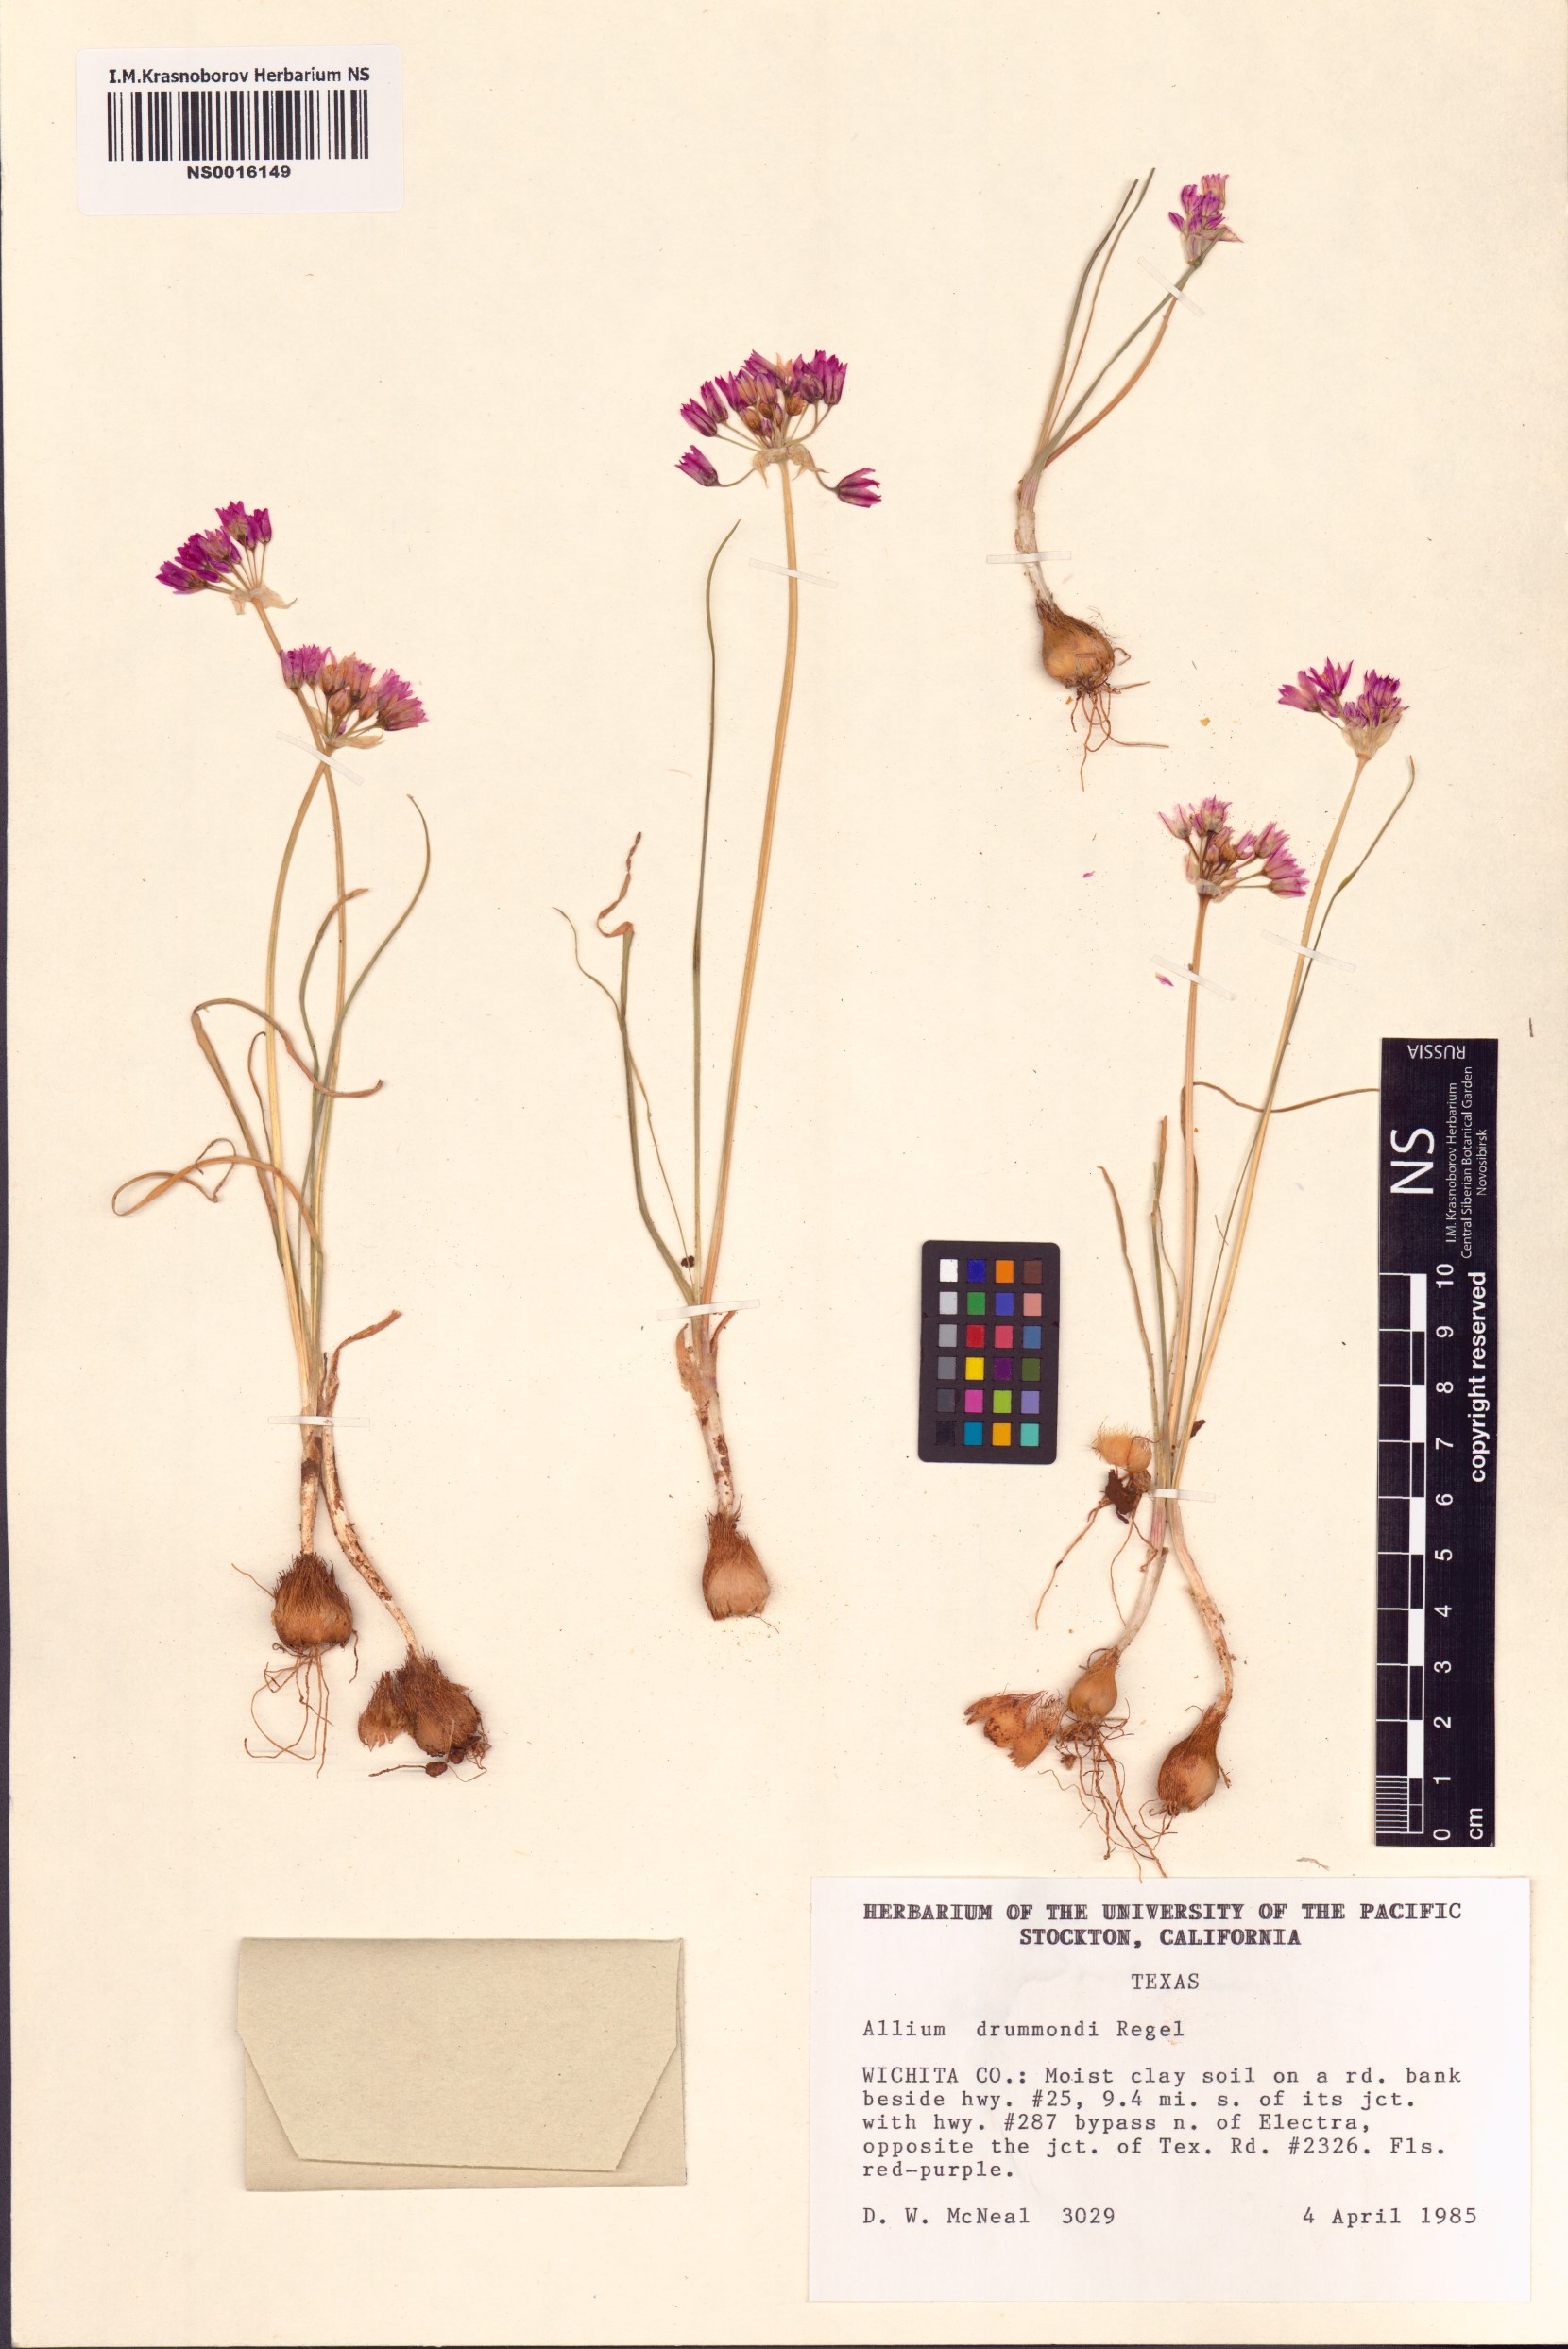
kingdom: Plantae
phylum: Tracheophyta
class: Liliopsida
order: Asparagales
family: Amaryllidaceae
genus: Allium
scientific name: Allium drummondii
